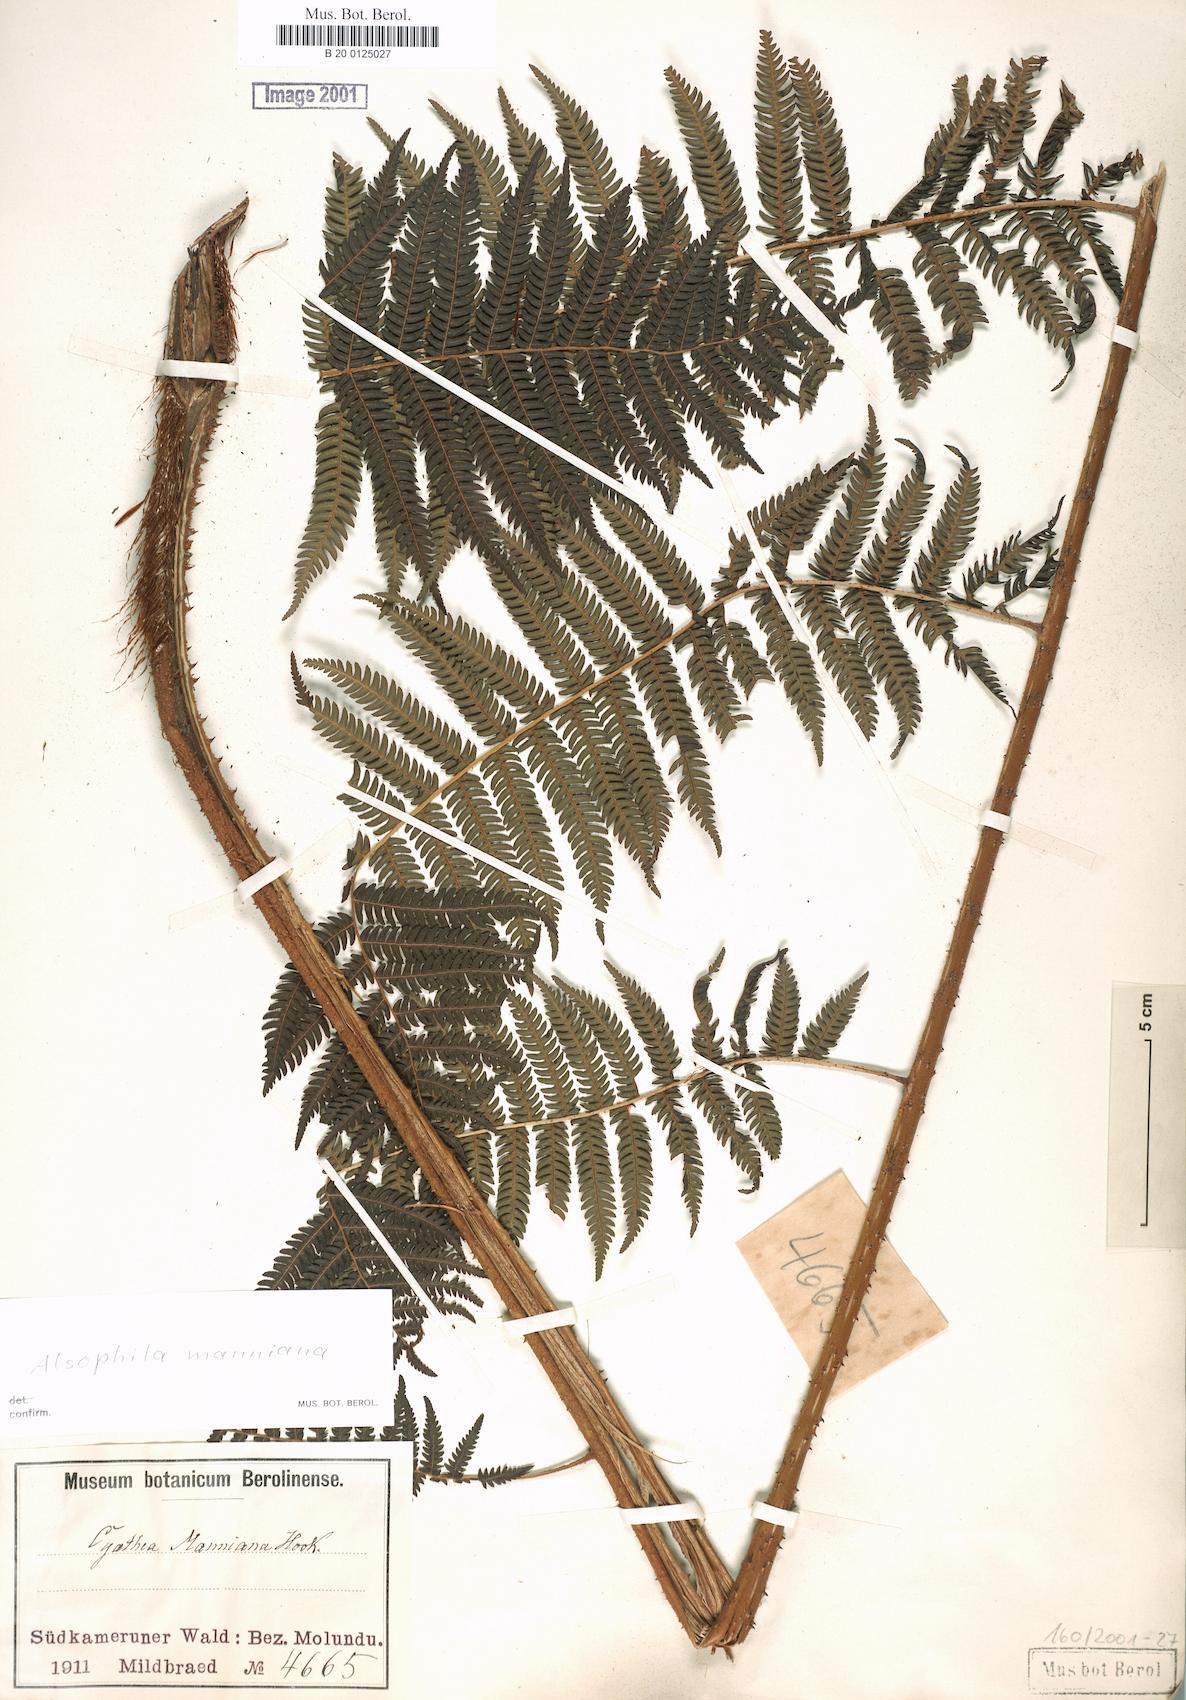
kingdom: Plantae
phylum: Tracheophyta
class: Polypodiopsida
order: Cyatheales
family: Cyatheaceae
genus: Alsophila
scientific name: Alsophila manniana
